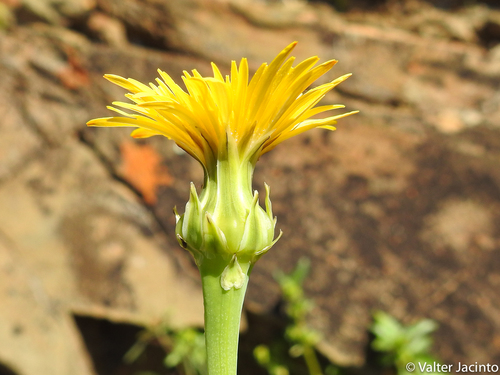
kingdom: Plantae
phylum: Tracheophyta
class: Magnoliopsida
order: Asterales
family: Asteraceae
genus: Reichardia
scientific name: Reichardia intermedia
